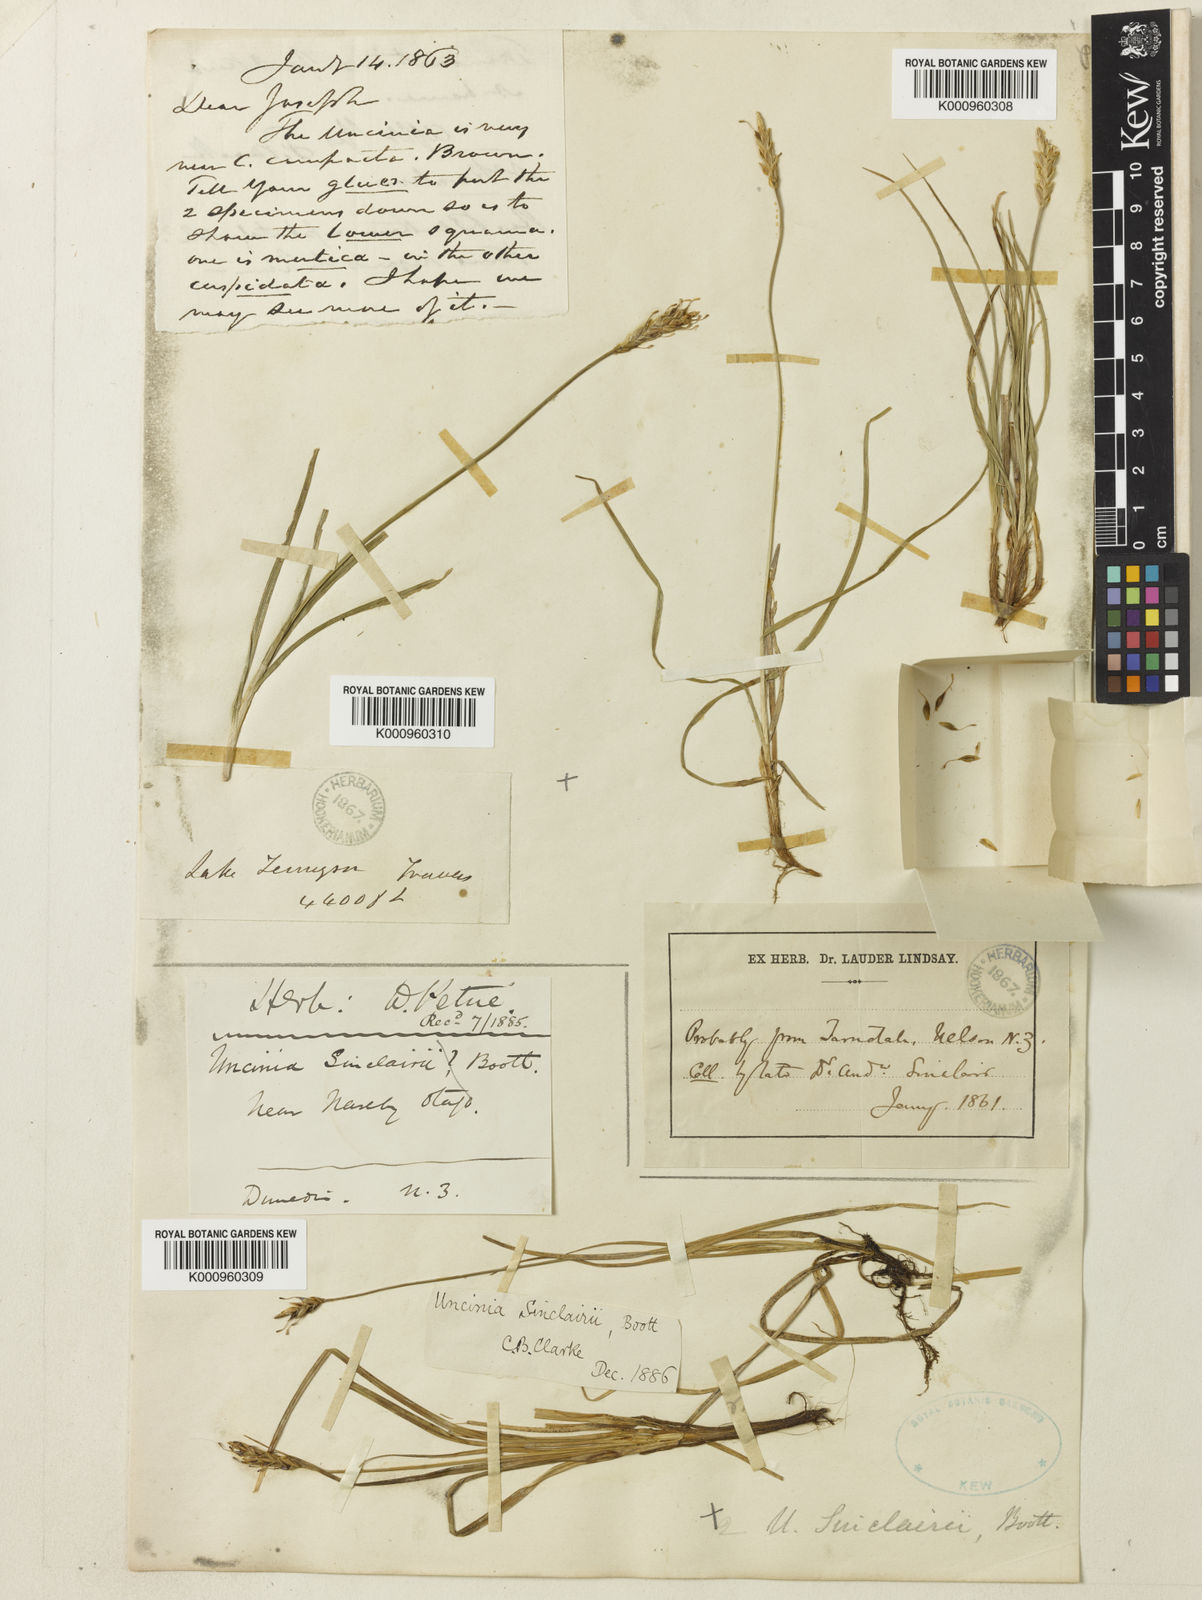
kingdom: Plantae
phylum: Tracheophyta
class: Liliopsida
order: Poales
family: Cyperaceae
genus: Carex
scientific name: Carex parvispica
